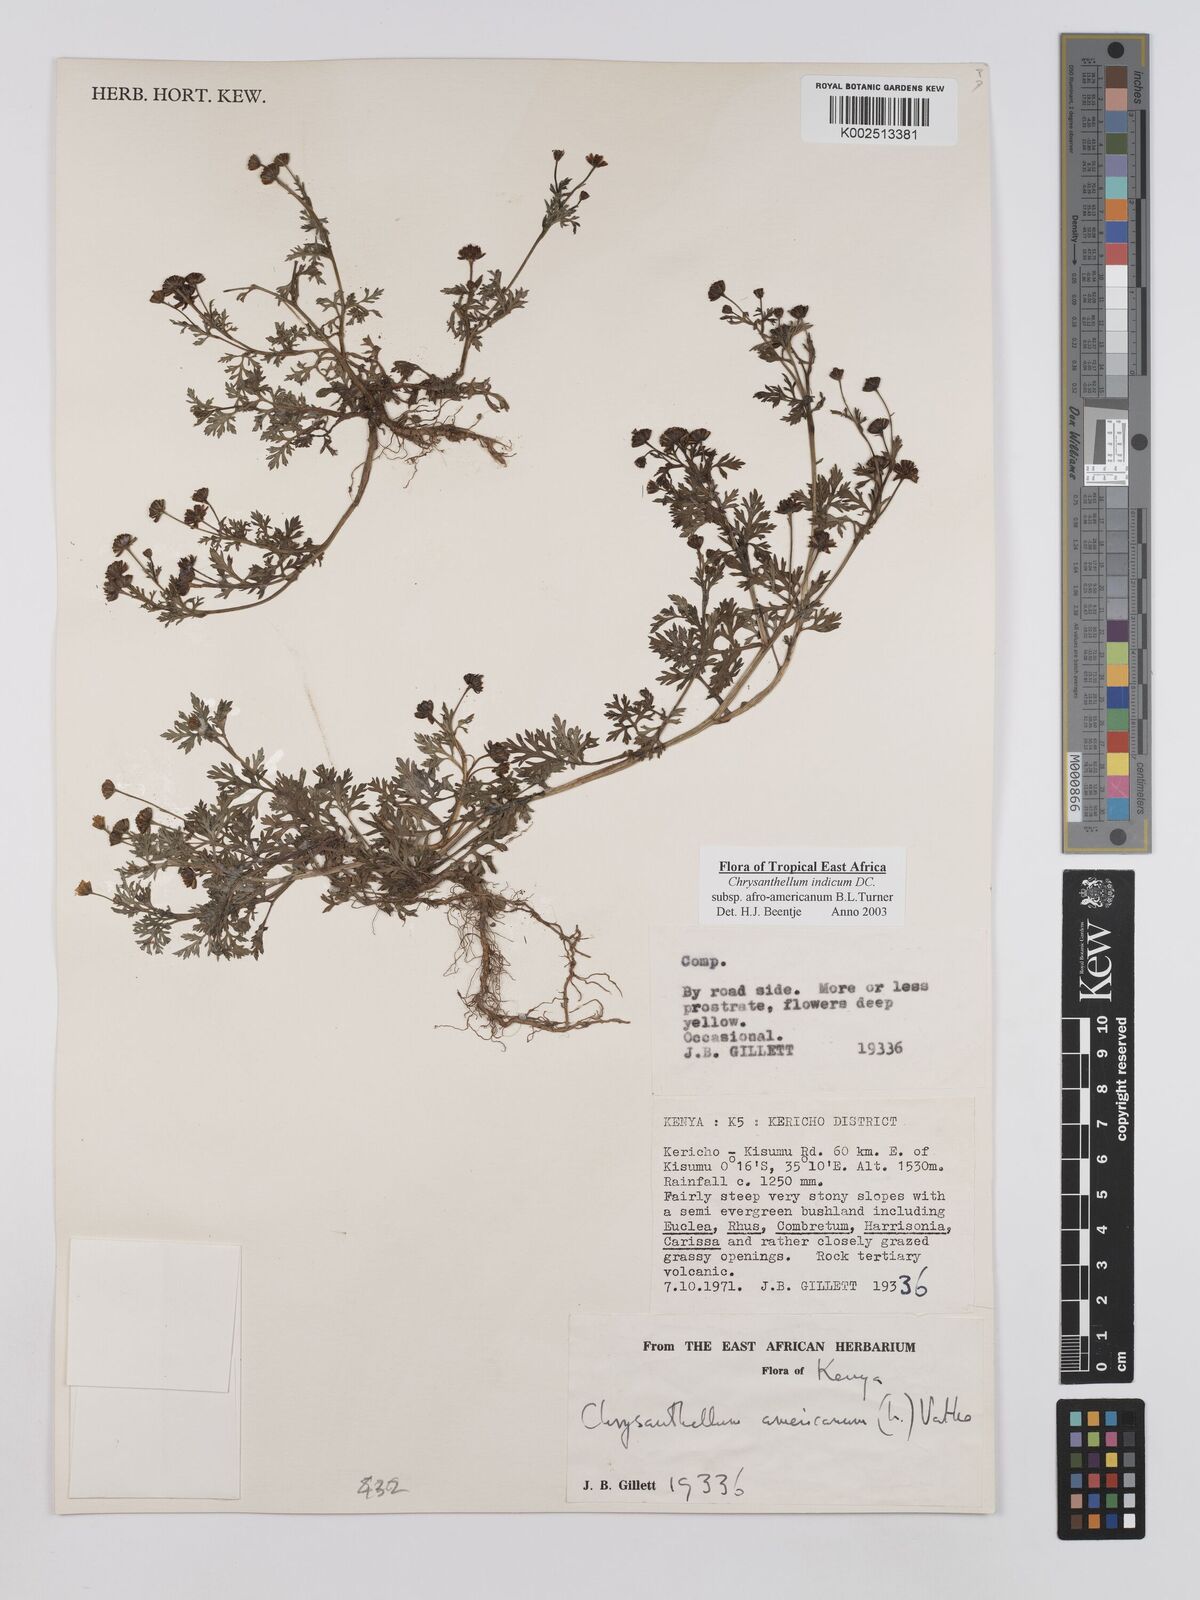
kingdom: Plantae
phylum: Tracheophyta
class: Magnoliopsida
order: Asterales
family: Asteraceae
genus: Chrysanthellum
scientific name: Chrysanthellum indicum
